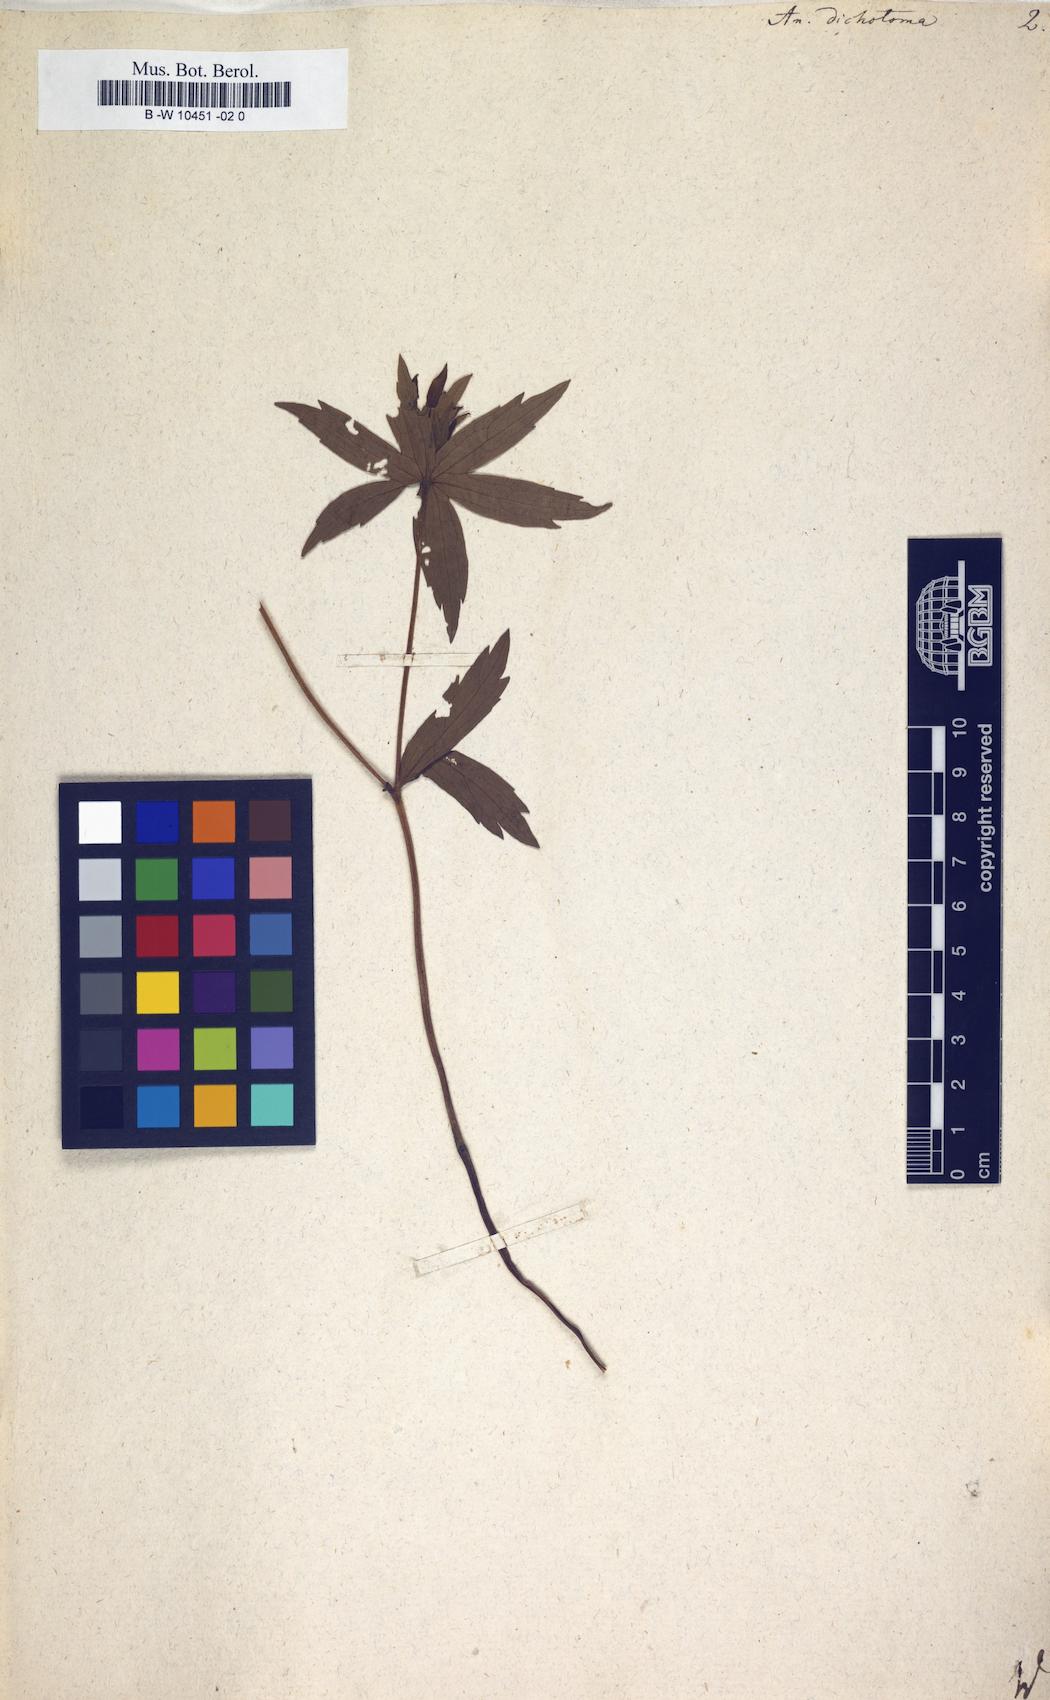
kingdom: Plantae
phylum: Tracheophyta
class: Magnoliopsida
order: Ranunculales
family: Ranunculaceae
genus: Anemonastrum
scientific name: Anemonastrum dichotomum
